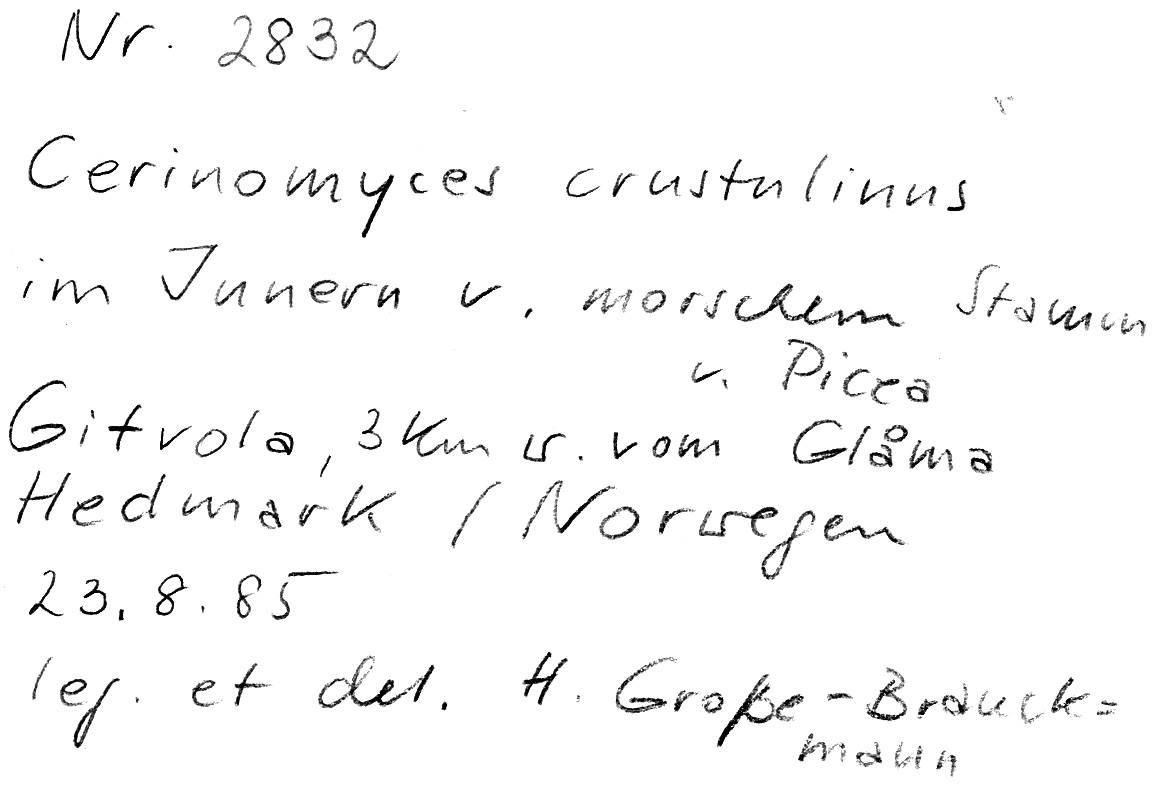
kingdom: Plantae
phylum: Tracheophyta
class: Pinopsida
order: Pinales
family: Pinaceae
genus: Picea
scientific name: Picea
